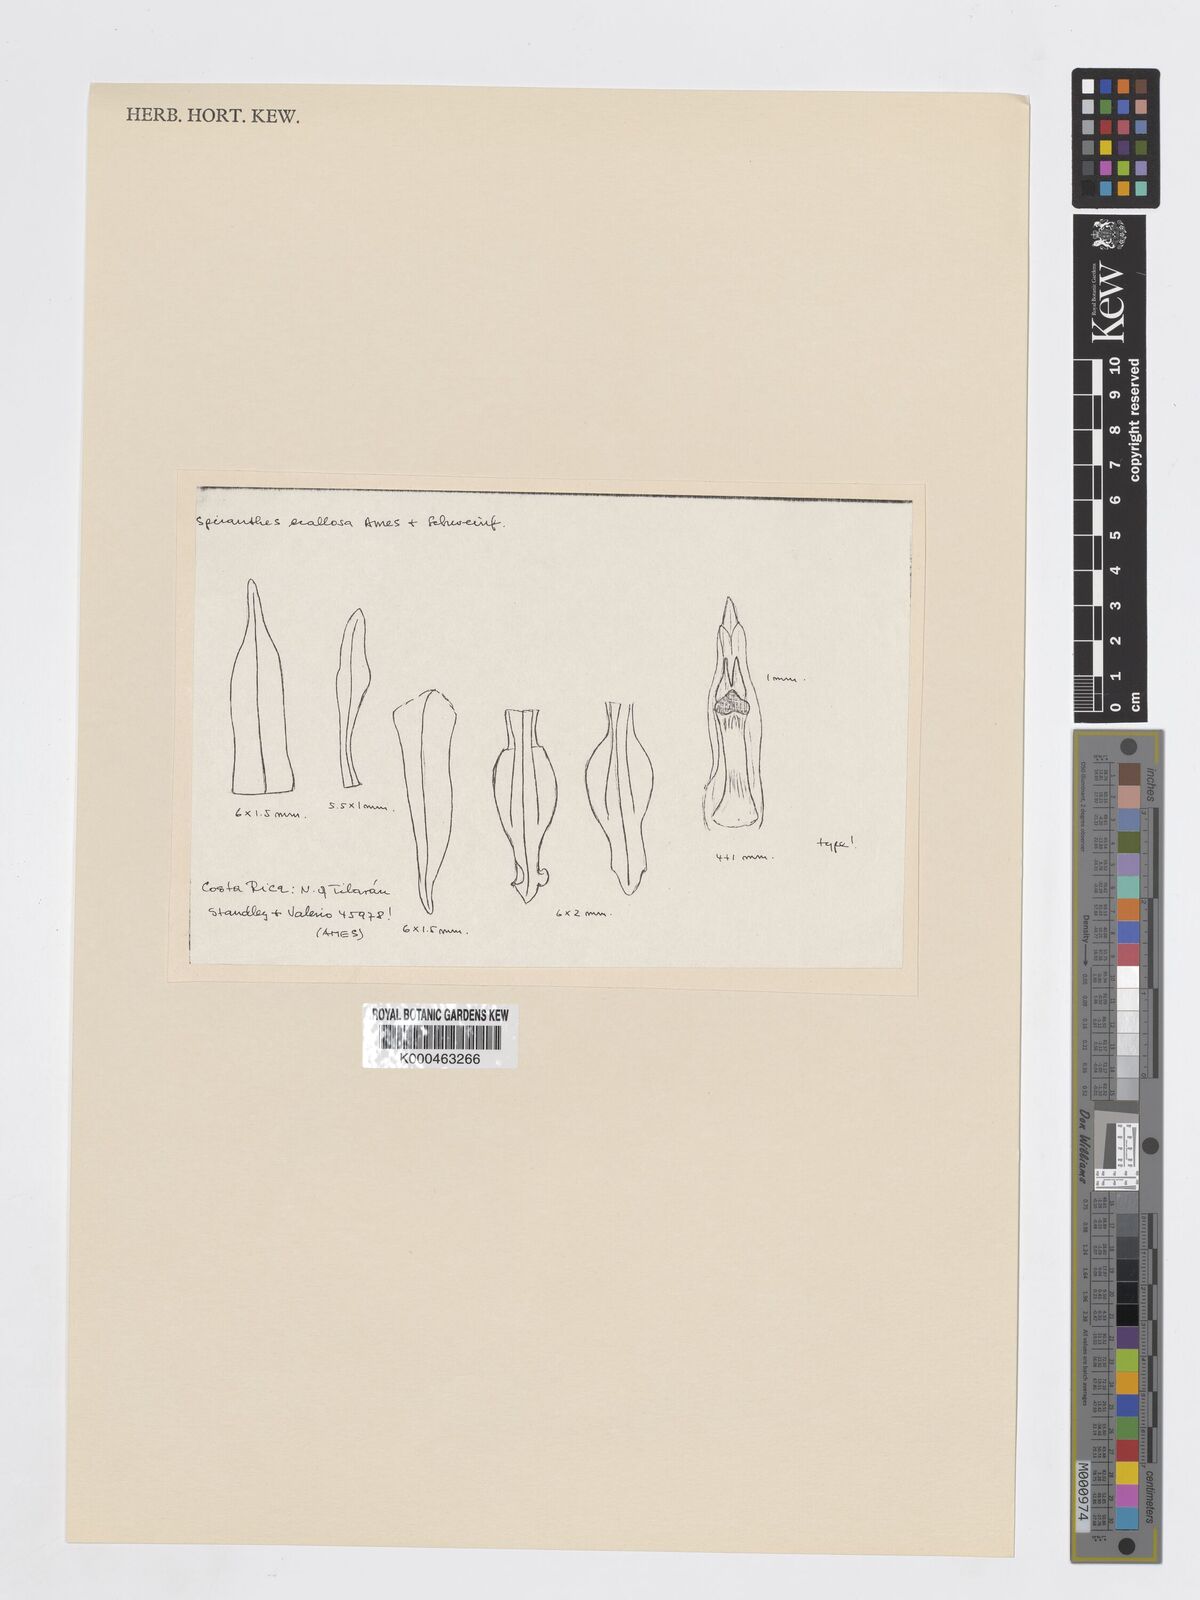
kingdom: Plantae
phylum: Tracheophyta
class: Liliopsida
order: Asparagales
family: Orchidaceae
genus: Beloglottis
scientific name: Beloglottis ecallosa
